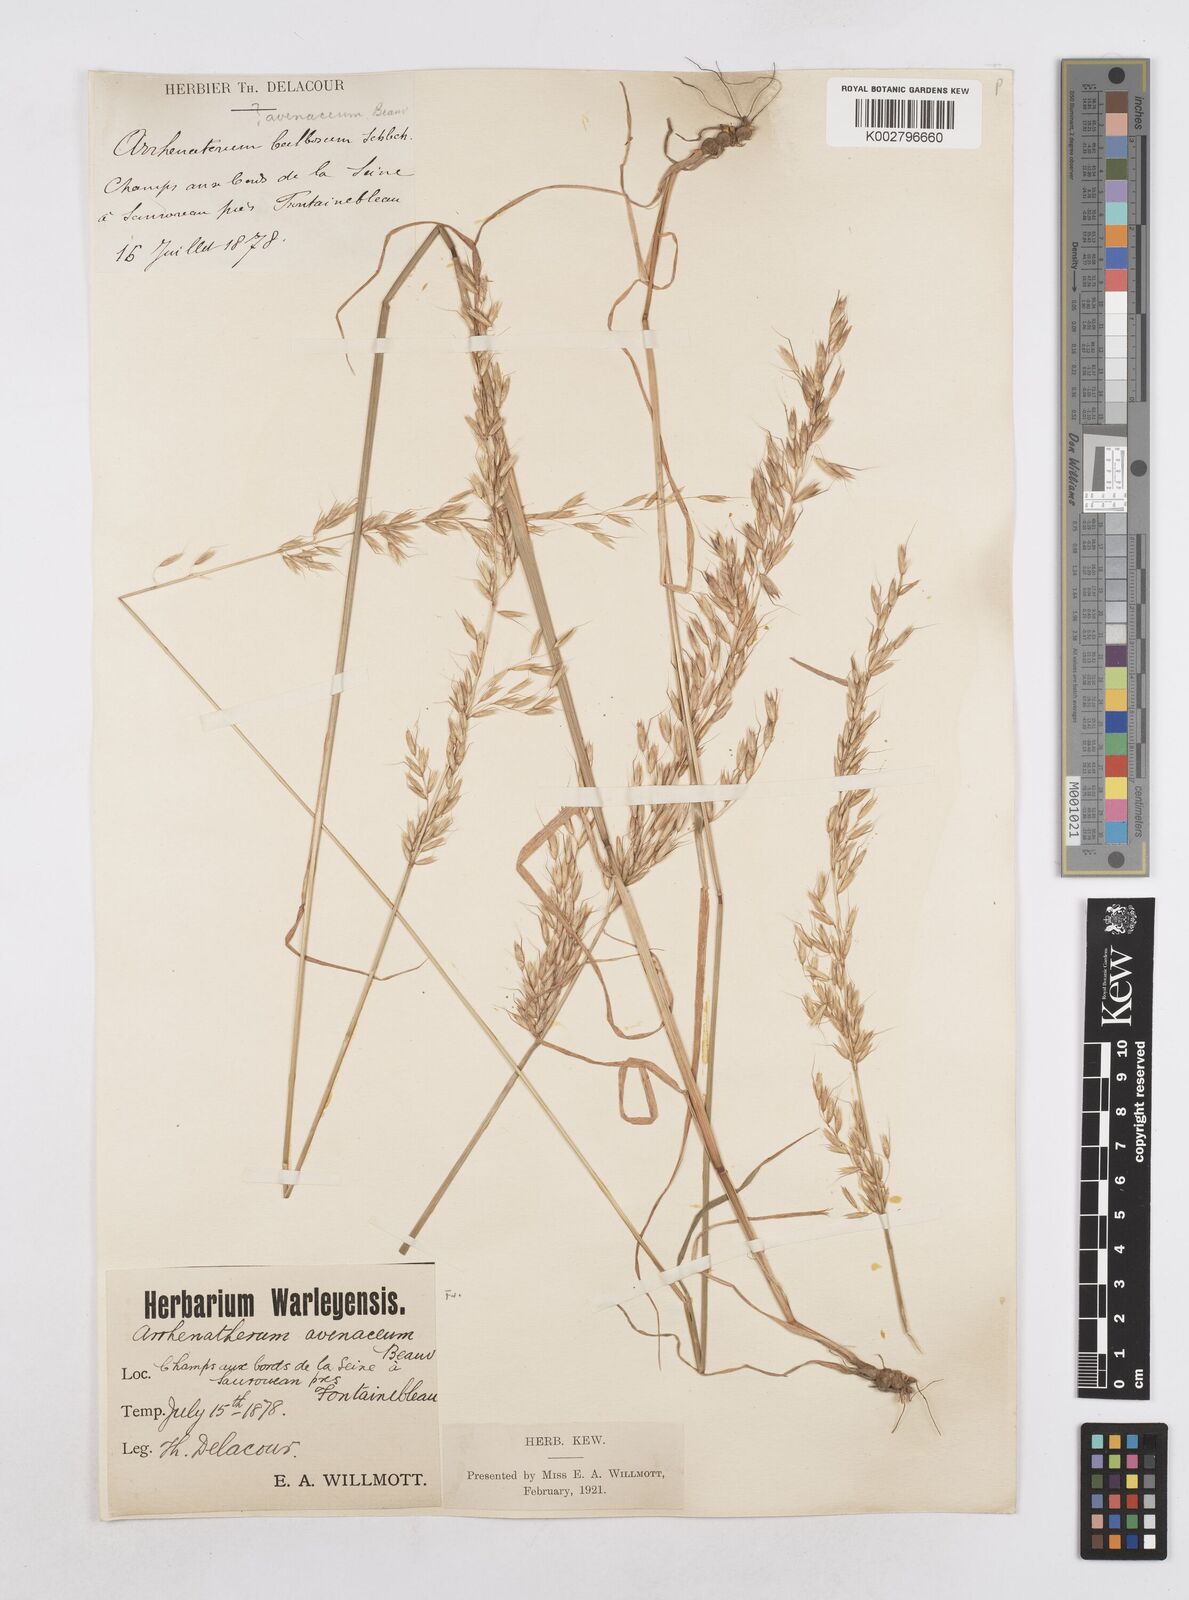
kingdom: Plantae
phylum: Tracheophyta
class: Liliopsida
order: Poales
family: Poaceae
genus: Arrhenatherum
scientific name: Arrhenatherum elatius
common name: Tall oatgrass
